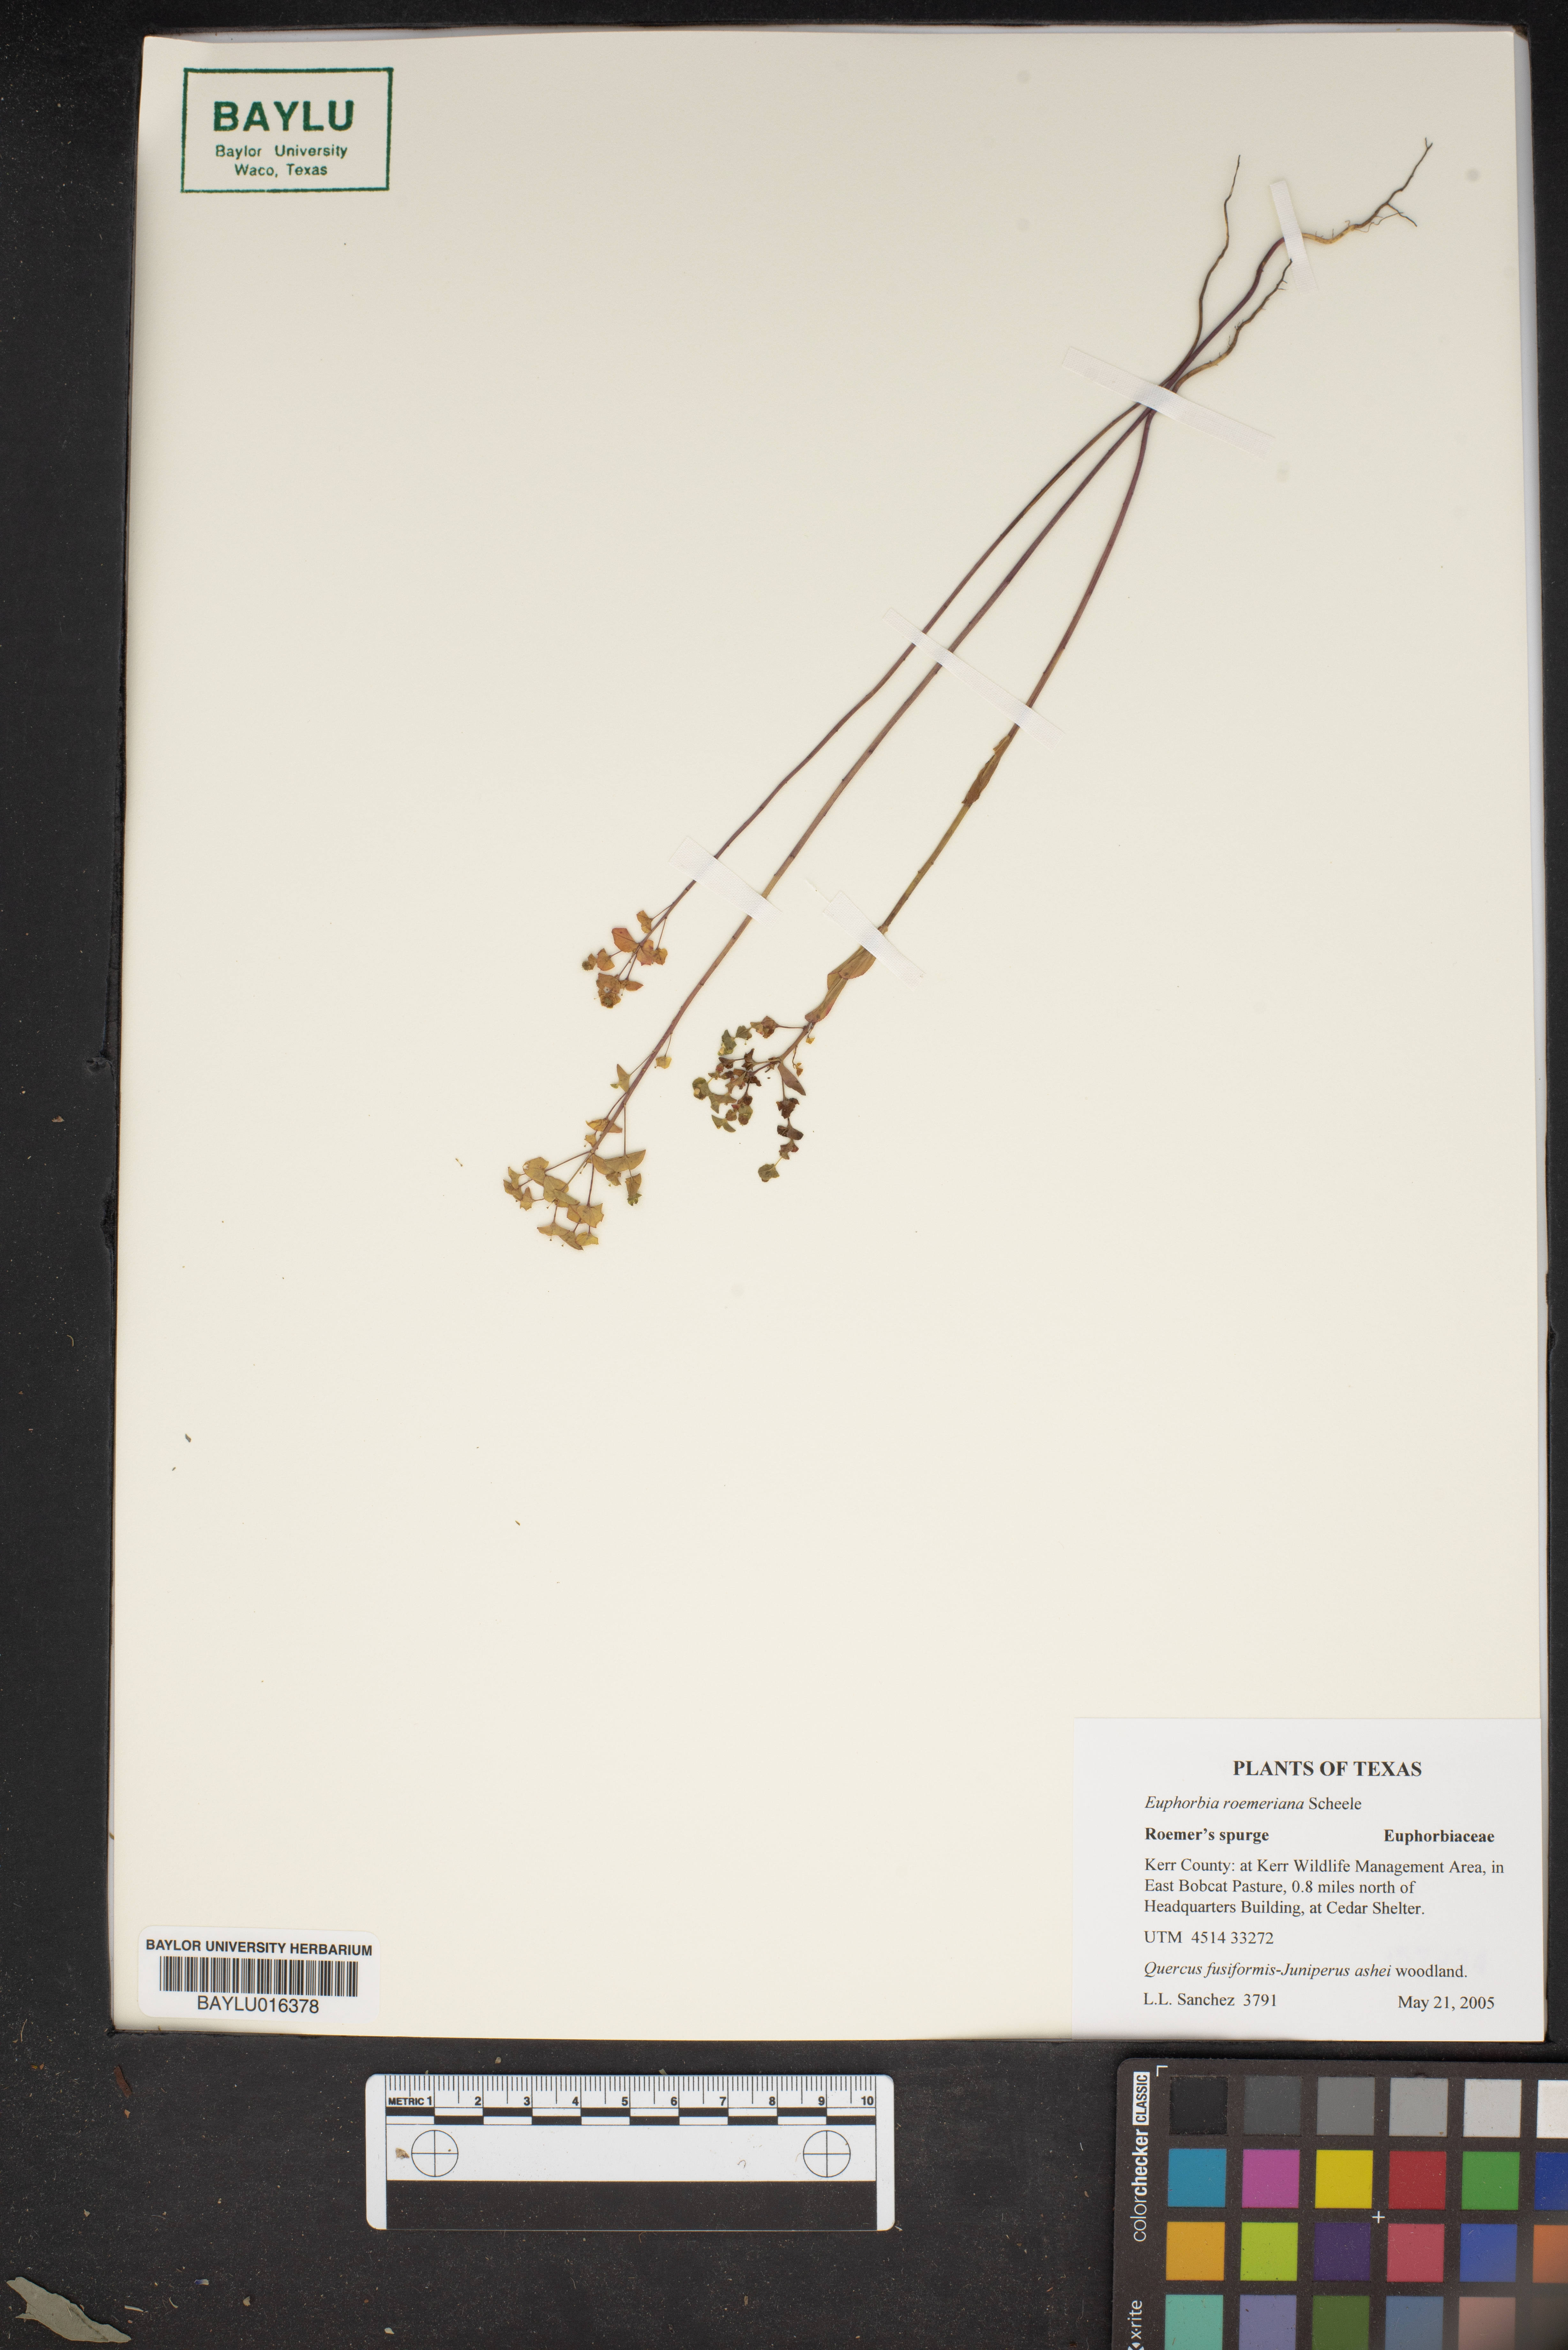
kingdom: Plantae
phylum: Tracheophyta
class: Magnoliopsida
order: Malpighiales
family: Euphorbiaceae
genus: Euphorbia
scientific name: Euphorbia roemeriana
